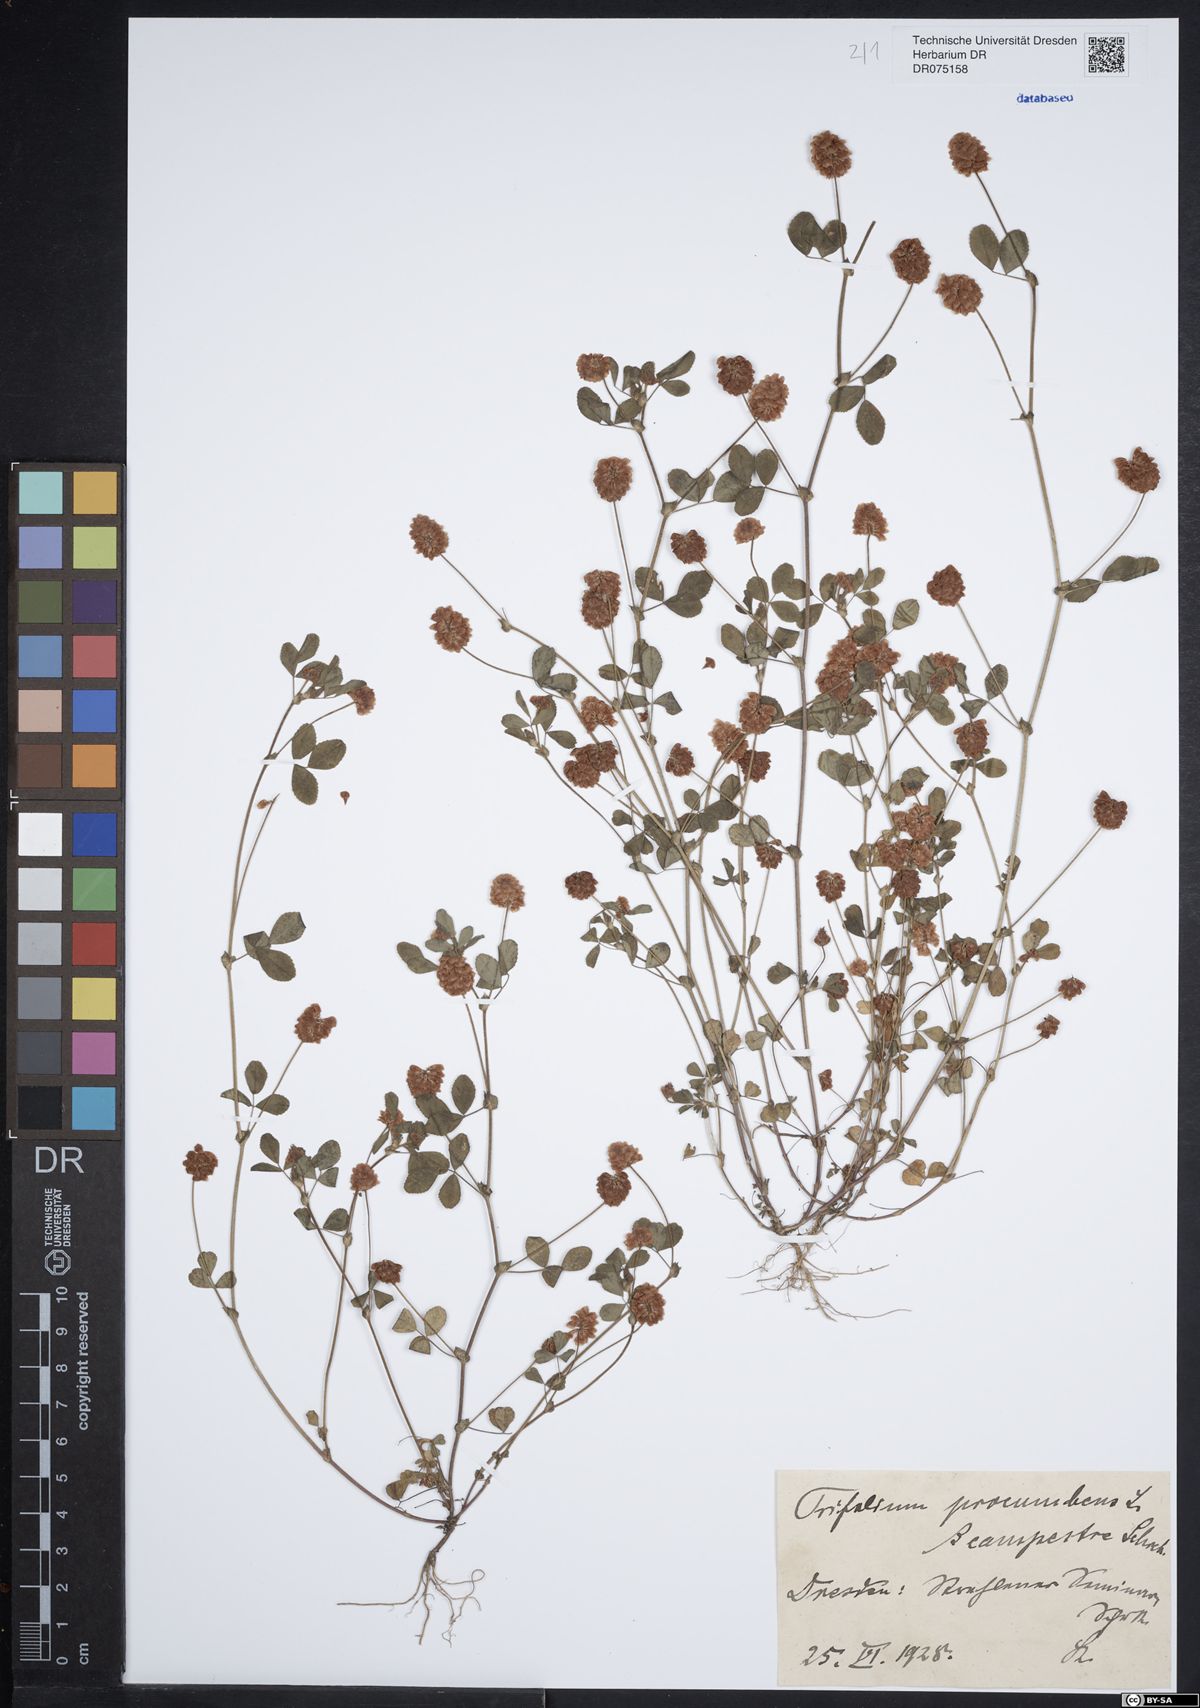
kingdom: Plantae
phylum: Tracheophyta
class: Magnoliopsida
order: Fabales
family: Fabaceae
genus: Trifolium
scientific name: Trifolium campestre
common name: Field clover
